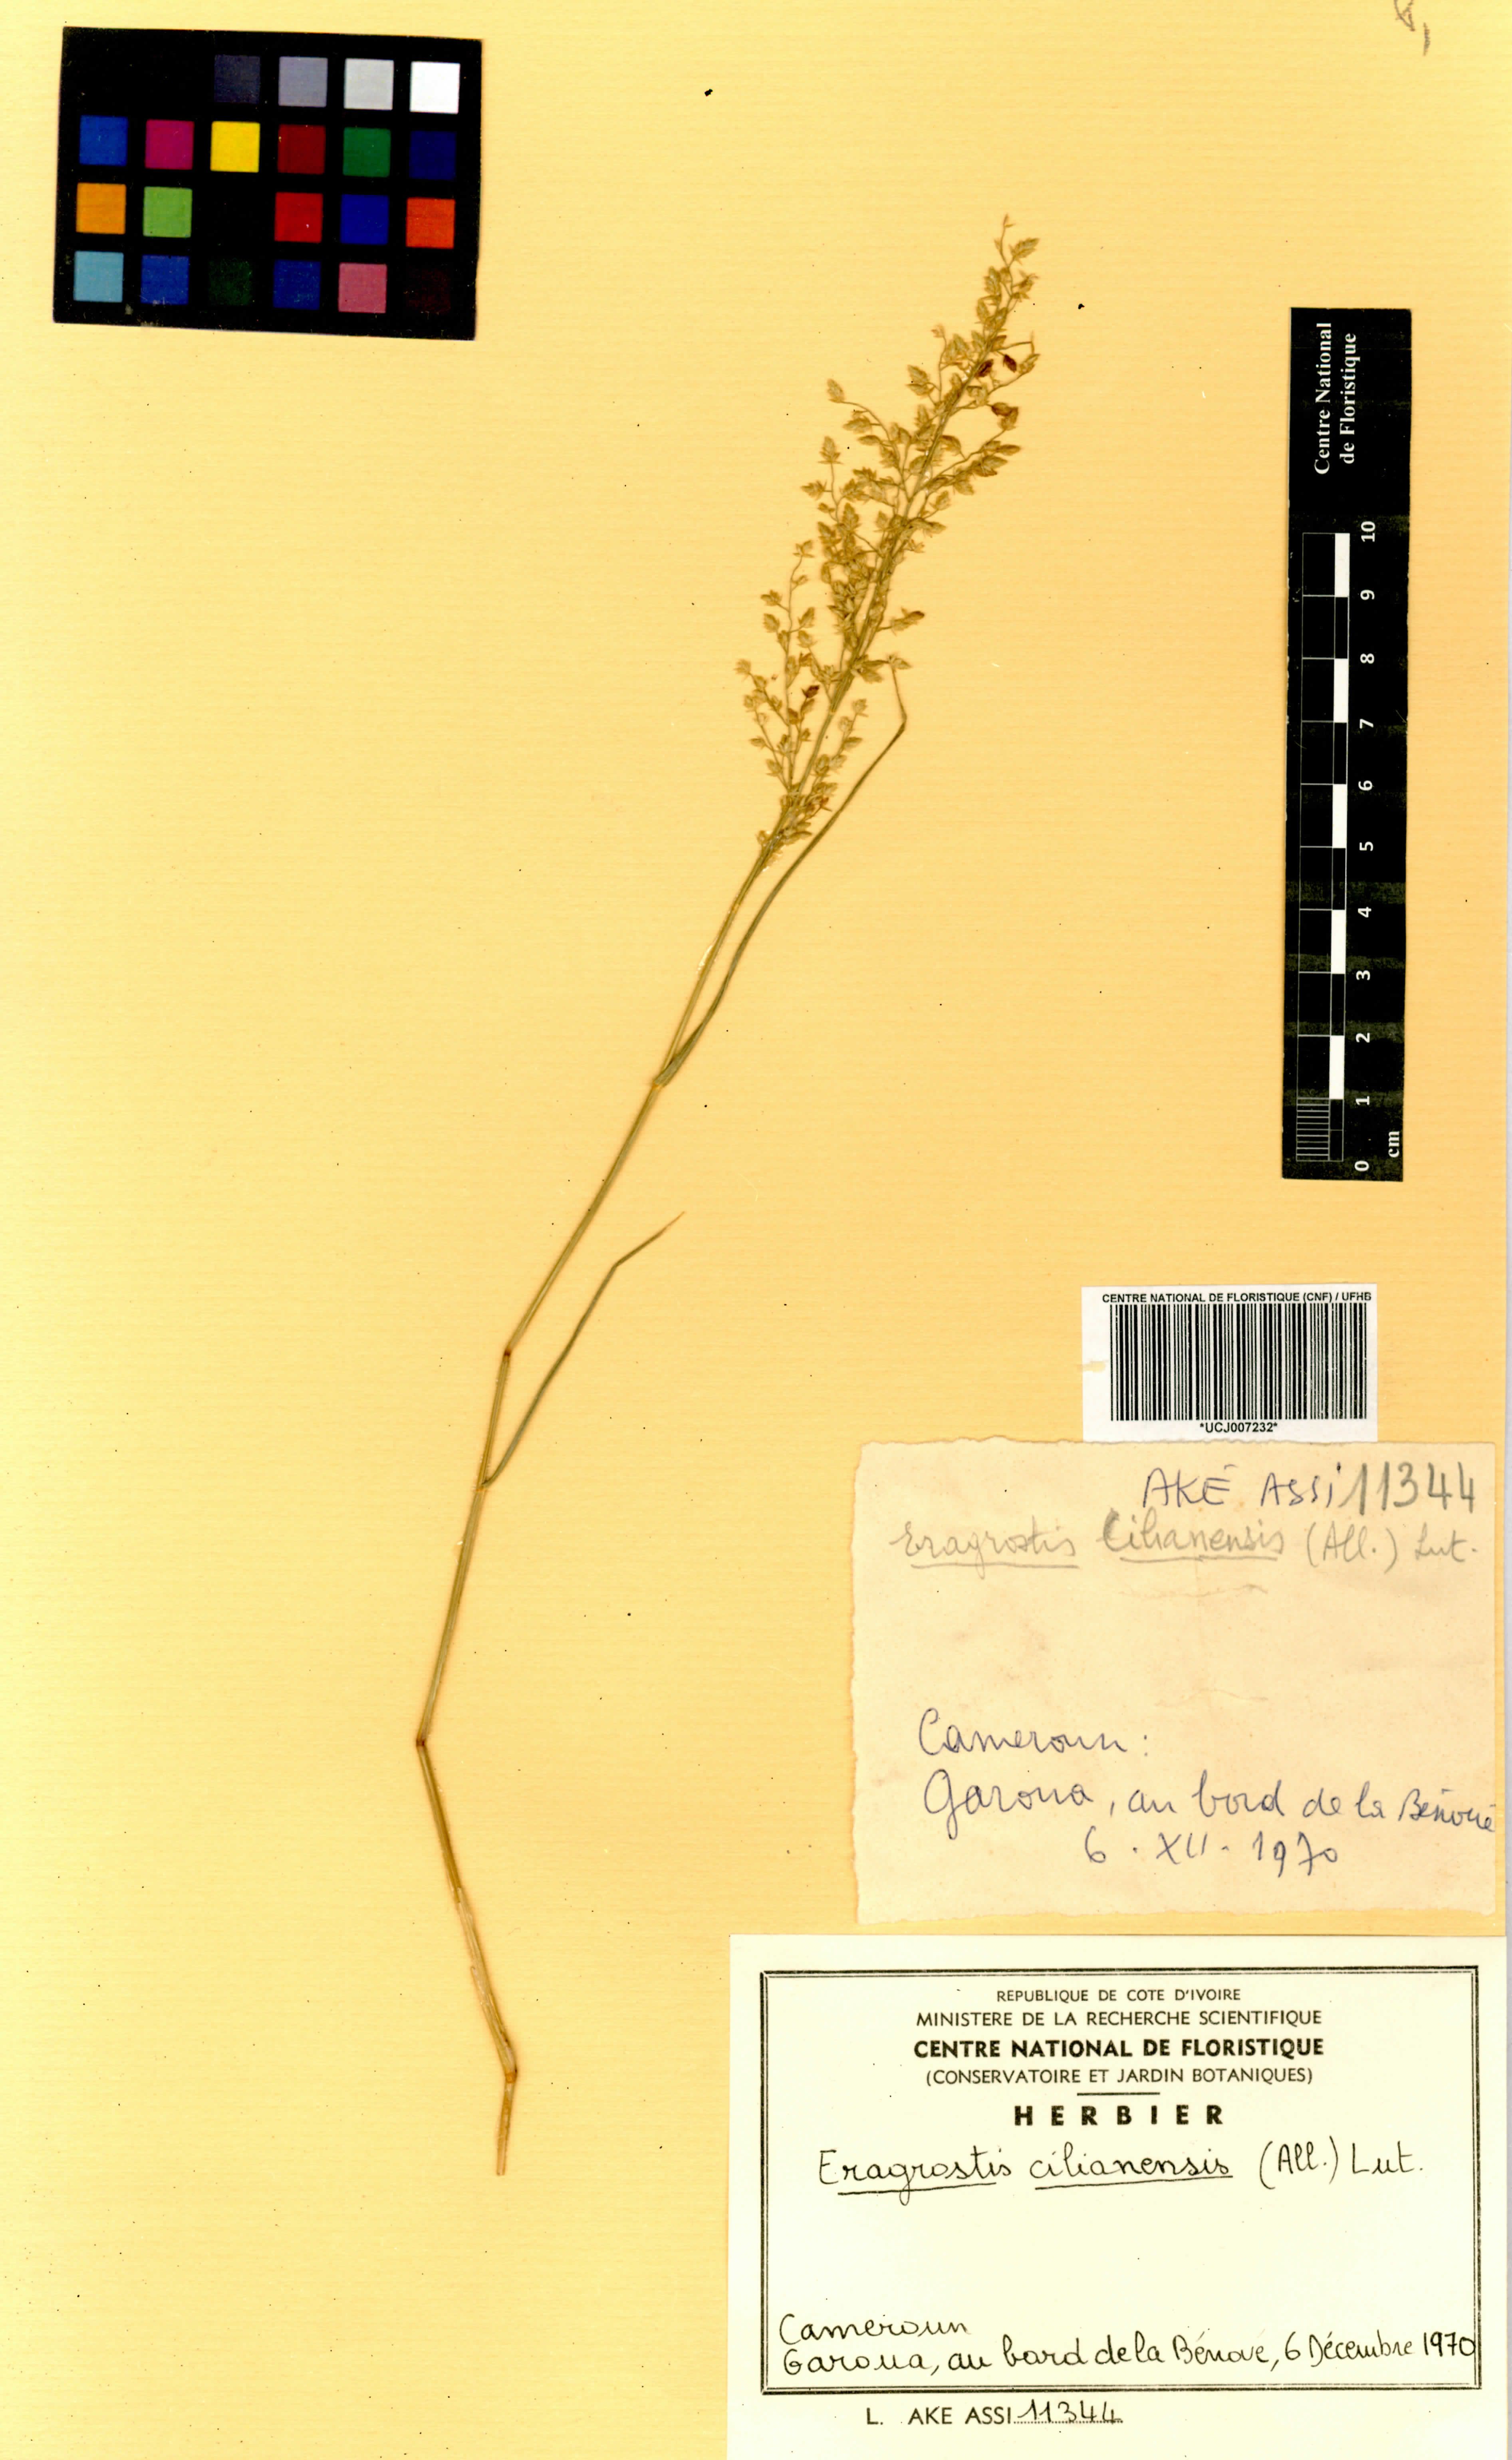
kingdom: Plantae
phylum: Tracheophyta
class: Liliopsida
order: Poales
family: Poaceae
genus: Eragrostis
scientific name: Eragrostis cilianensis
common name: Stinkgrass
